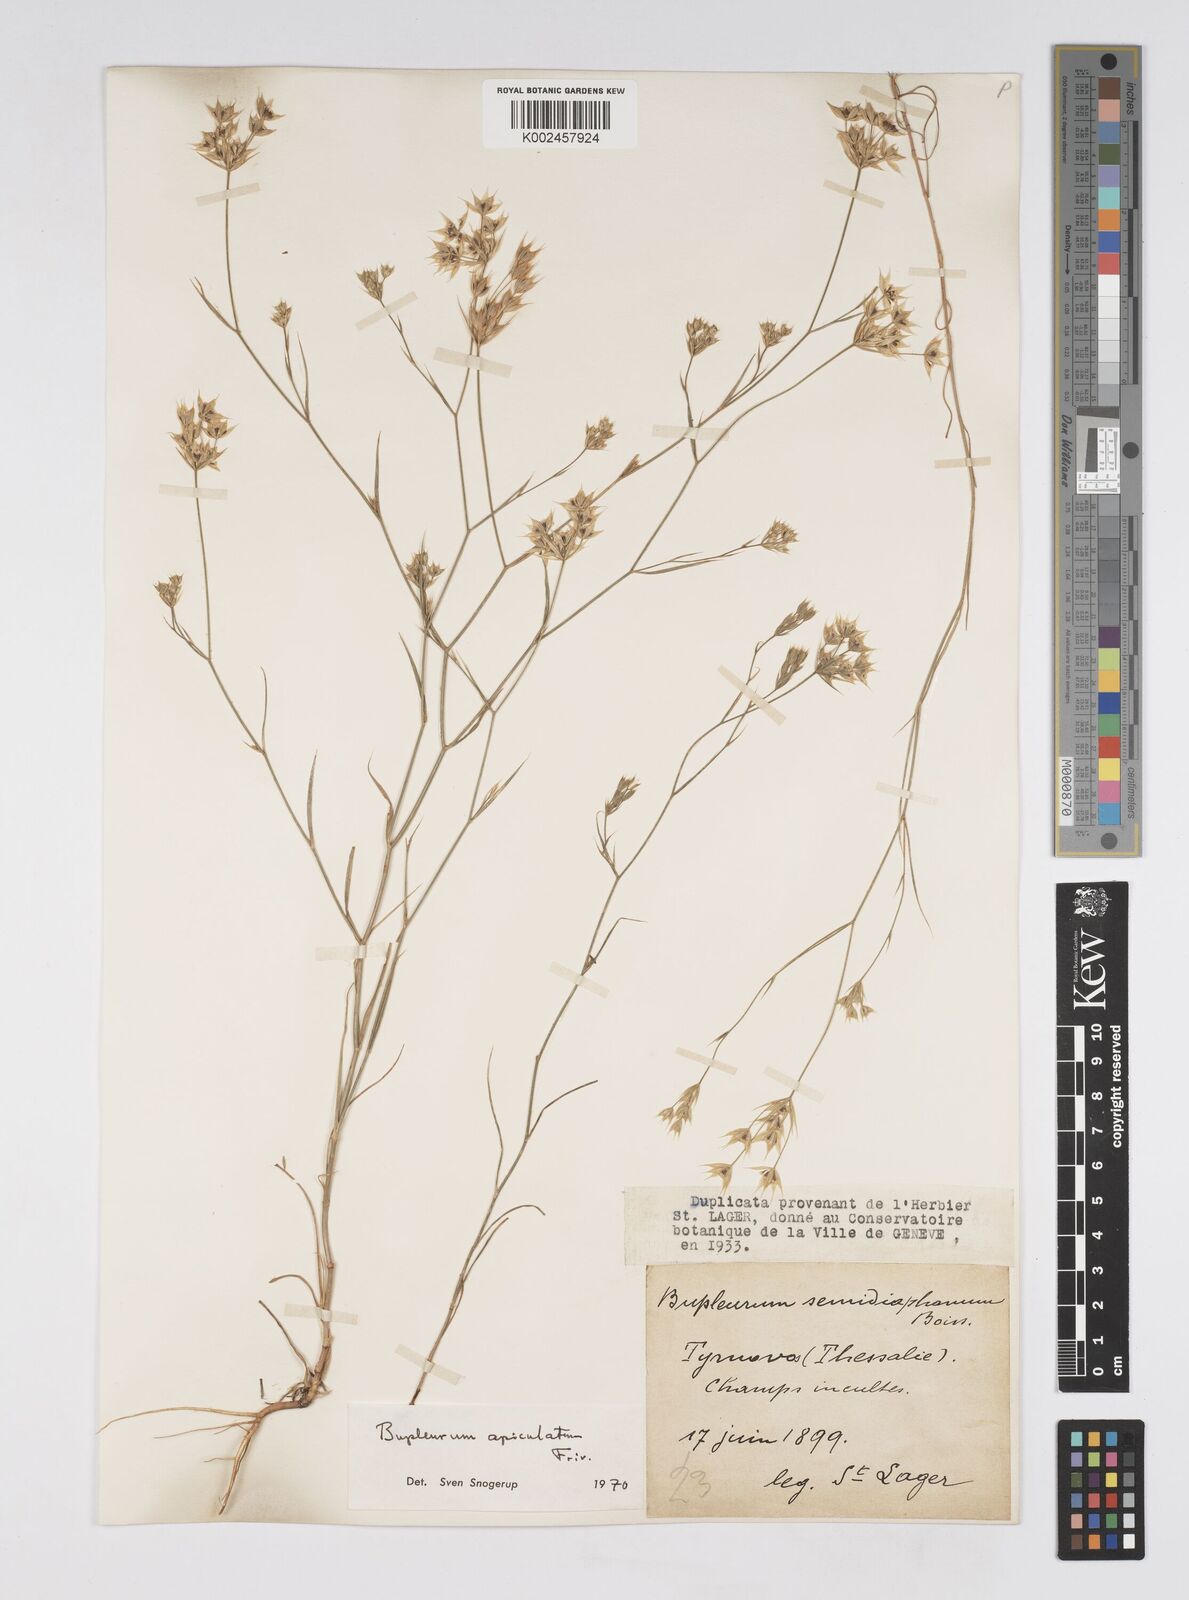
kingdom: Plantae
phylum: Tracheophyta
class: Magnoliopsida
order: Apiales
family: Apiaceae
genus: Bupleurum
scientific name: Bupleurum apiculatum
